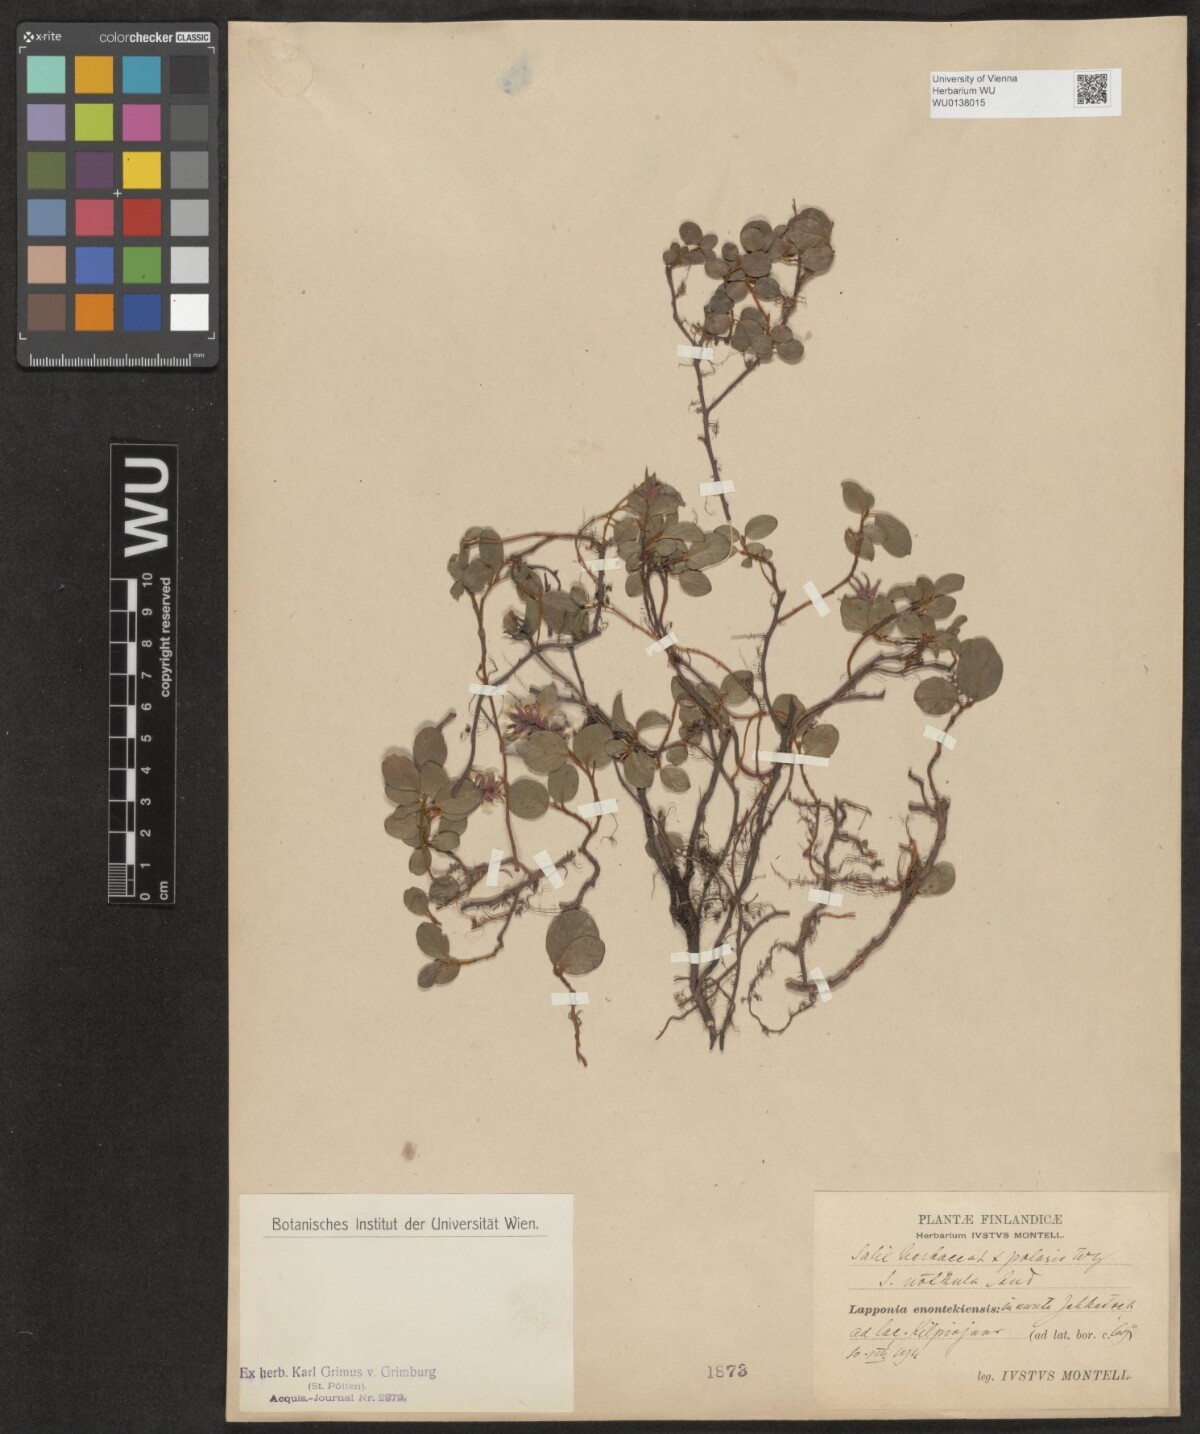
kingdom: Plantae
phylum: Tracheophyta
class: Magnoliopsida
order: Malpighiales
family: Salicaceae
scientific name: Salicaceae
